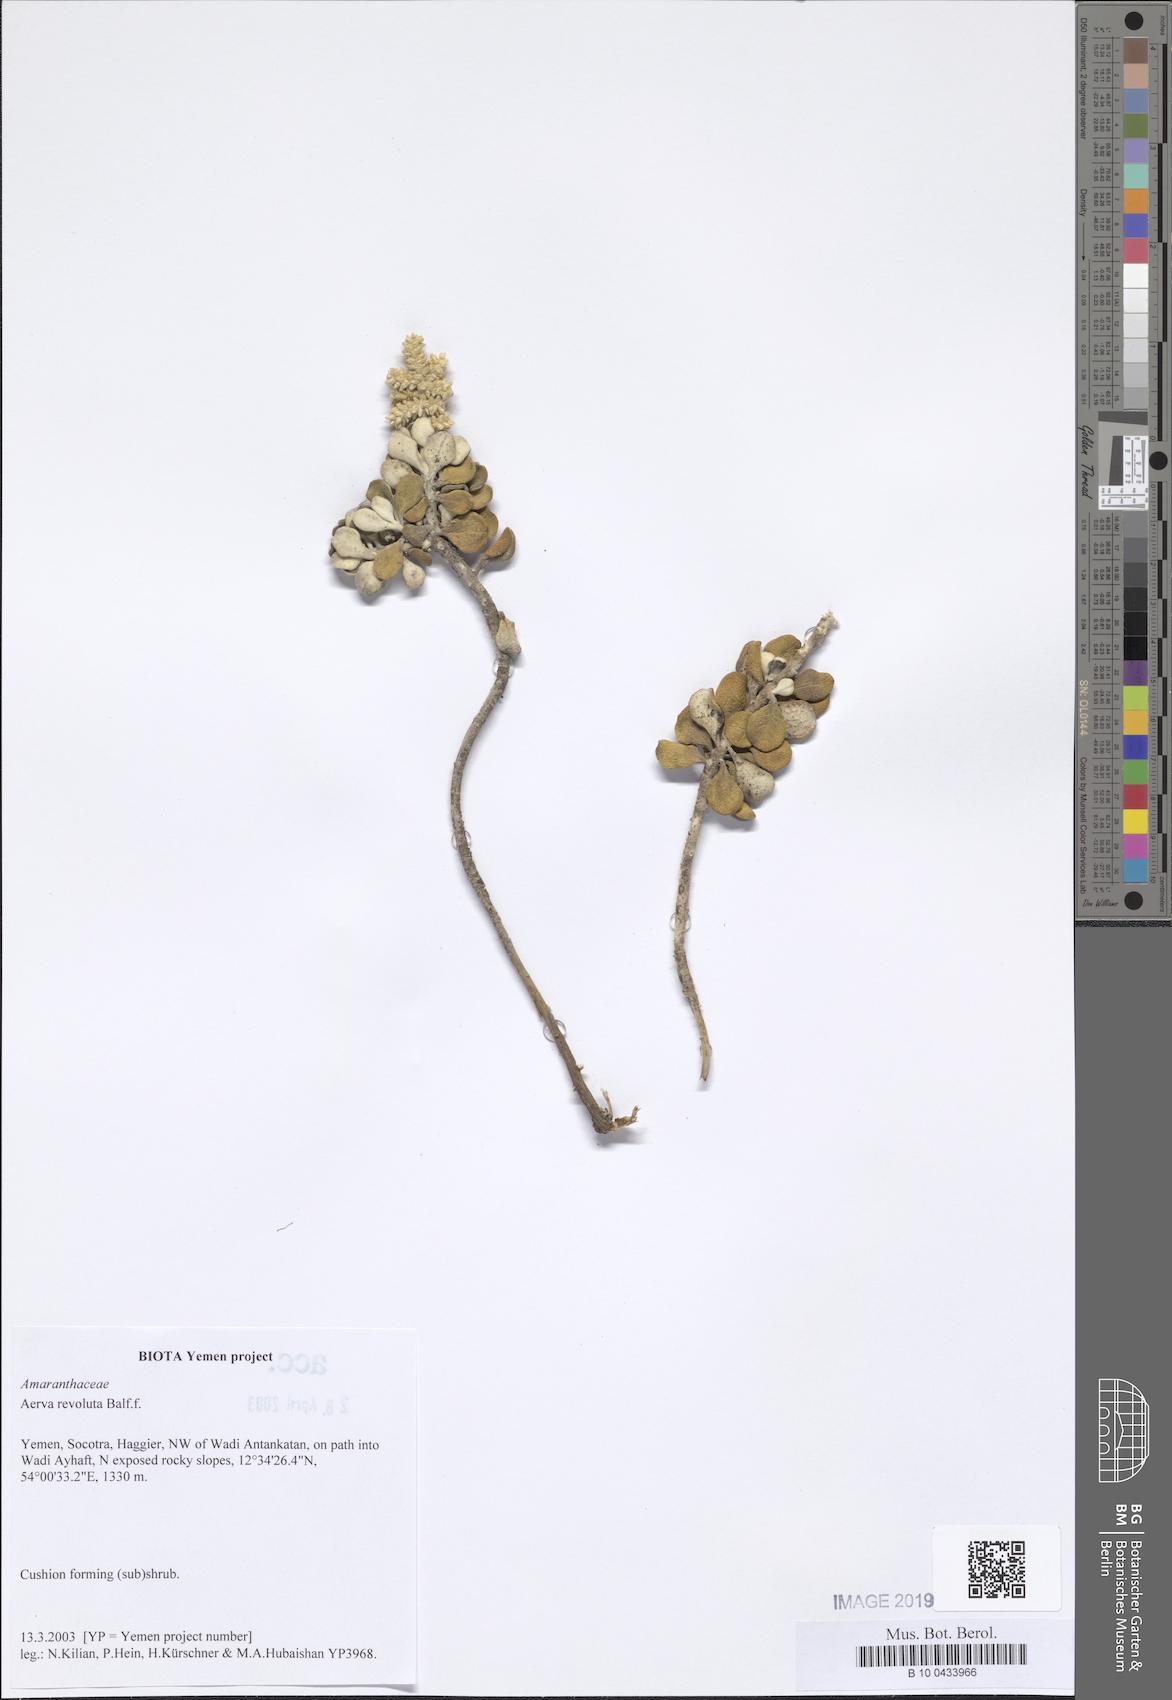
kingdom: Plantae
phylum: Tracheophyta
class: Magnoliopsida
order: Caryophyllales
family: Amaranthaceae
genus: Paraerva
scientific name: Paraerva revoluta
